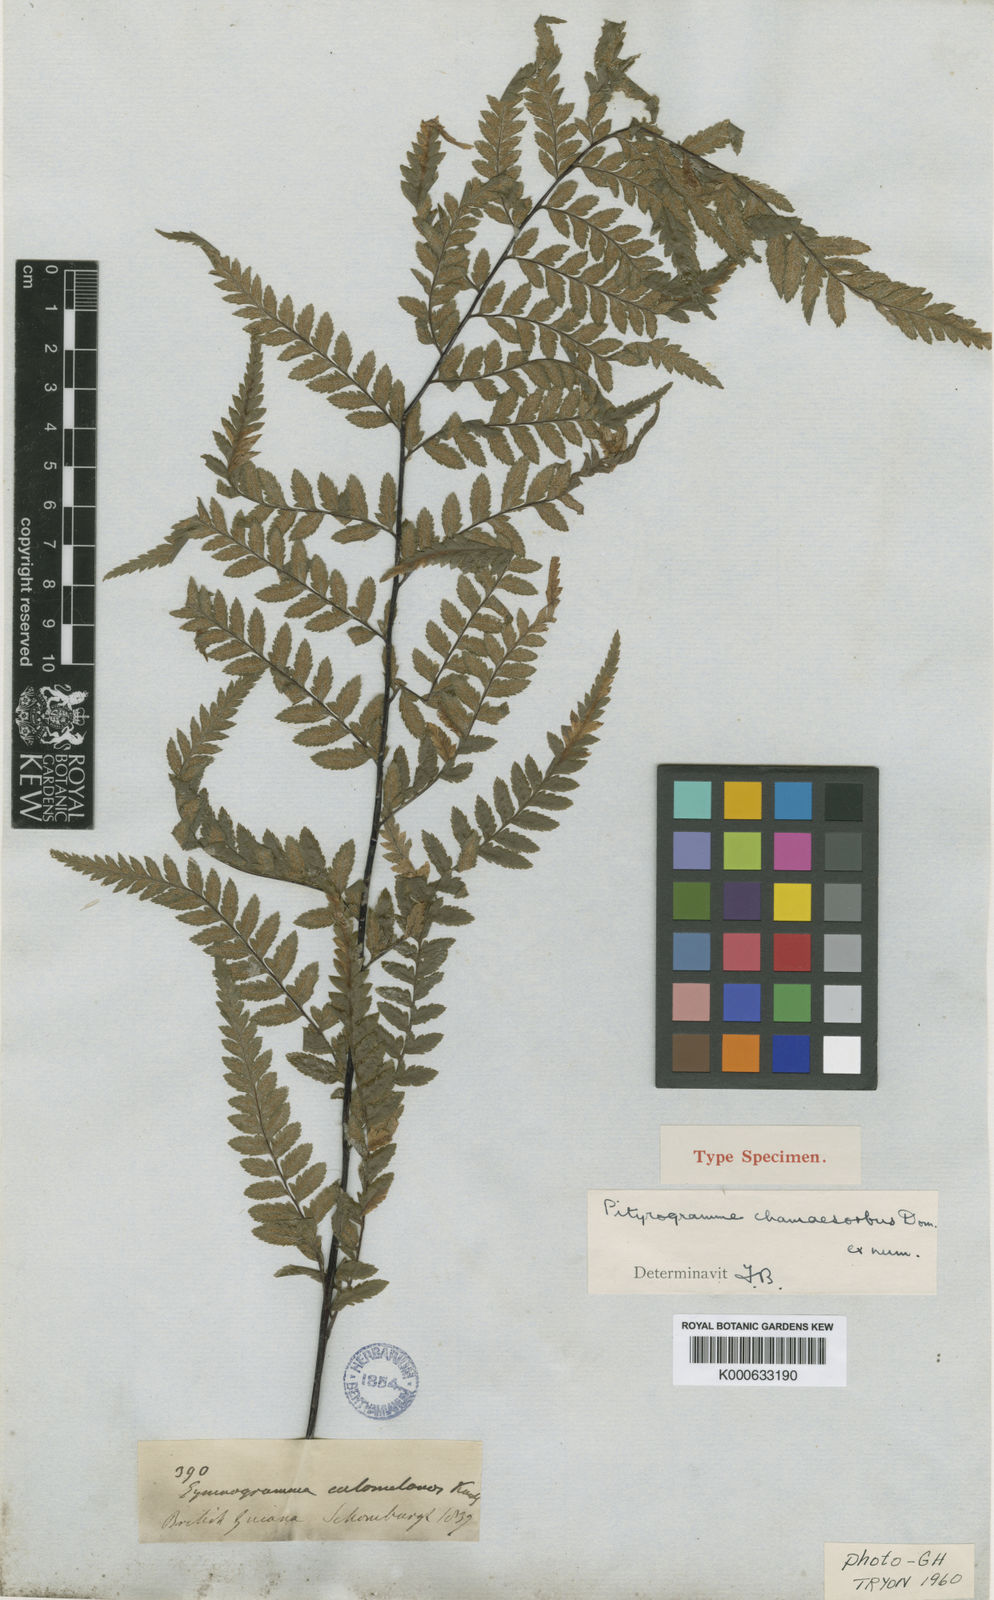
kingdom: Plantae
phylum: Tracheophyta
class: Polypodiopsida
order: Polypodiales
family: Pteridaceae
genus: Pityrogramma
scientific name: Pityrogramma calomelanos
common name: Dixie silverback fern
